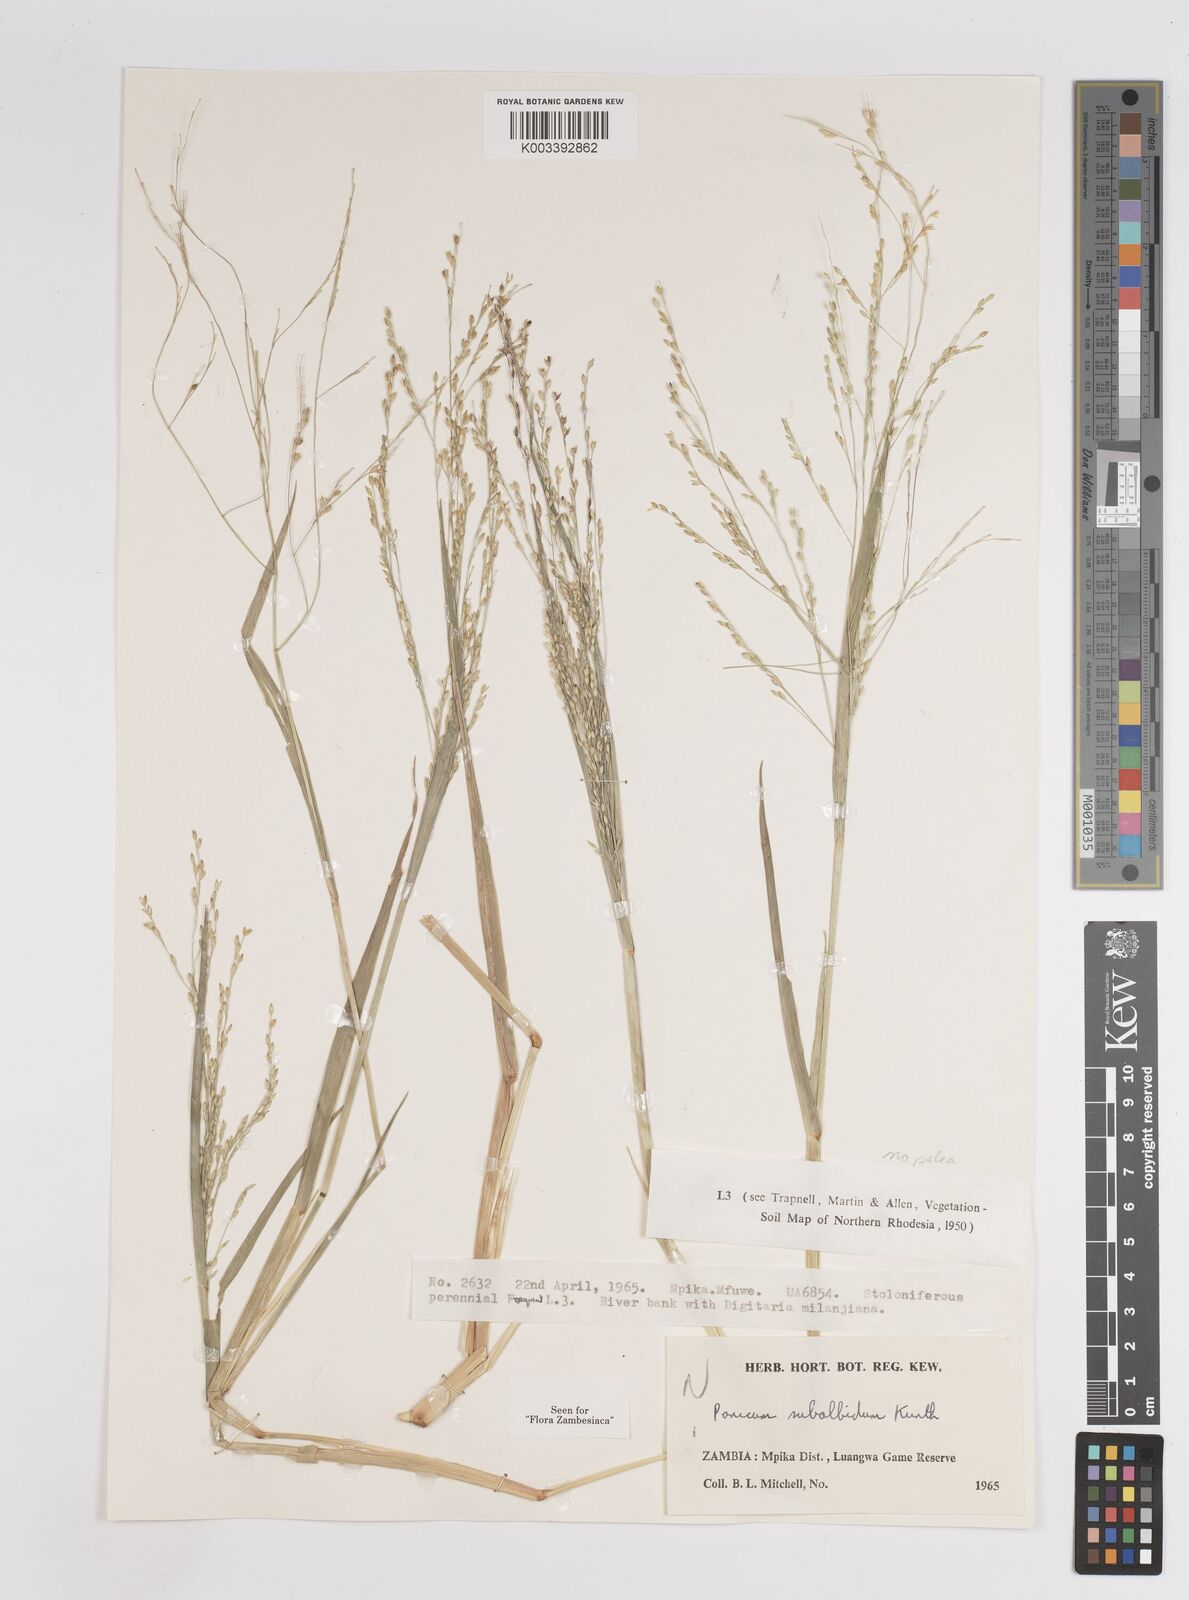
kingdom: Plantae
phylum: Tracheophyta
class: Liliopsida
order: Poales
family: Poaceae
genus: Panicum
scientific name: Panicum subalbidum
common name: Elbow buffalo grass
